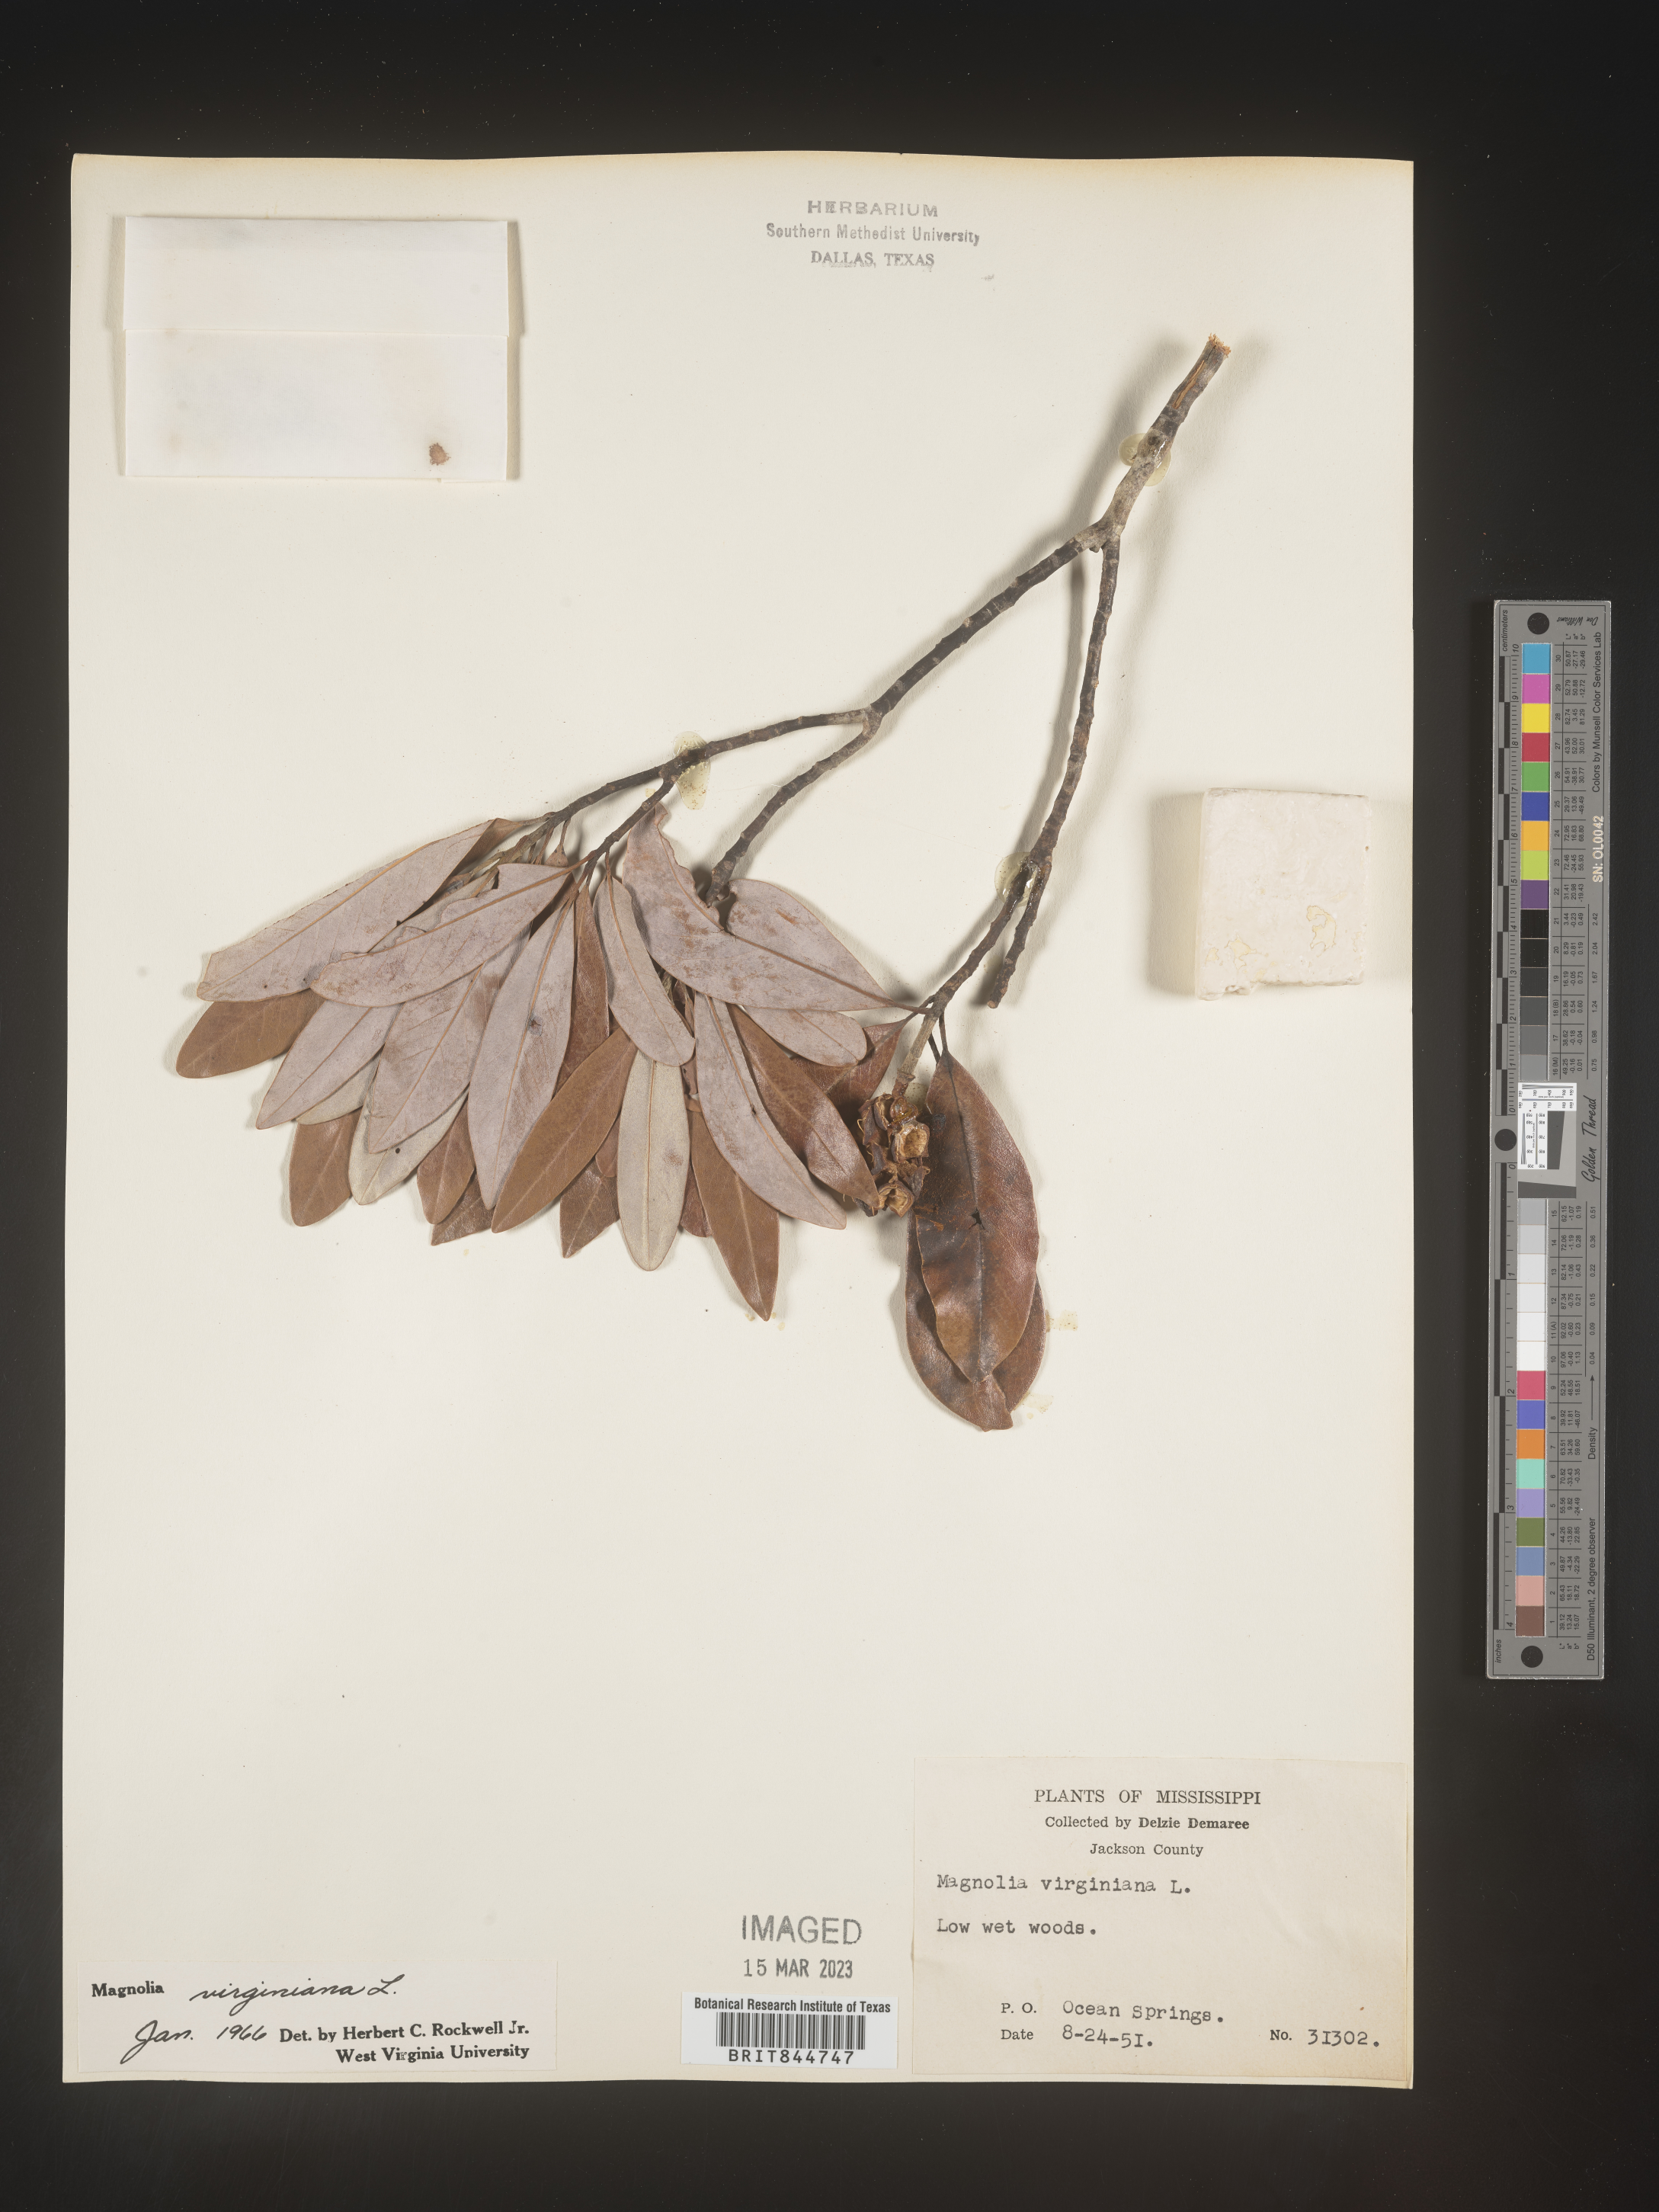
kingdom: Plantae
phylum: Tracheophyta
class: Magnoliopsida
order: Magnoliales
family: Magnoliaceae
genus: Magnolia
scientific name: Magnolia virginiana
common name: Swamp bay
